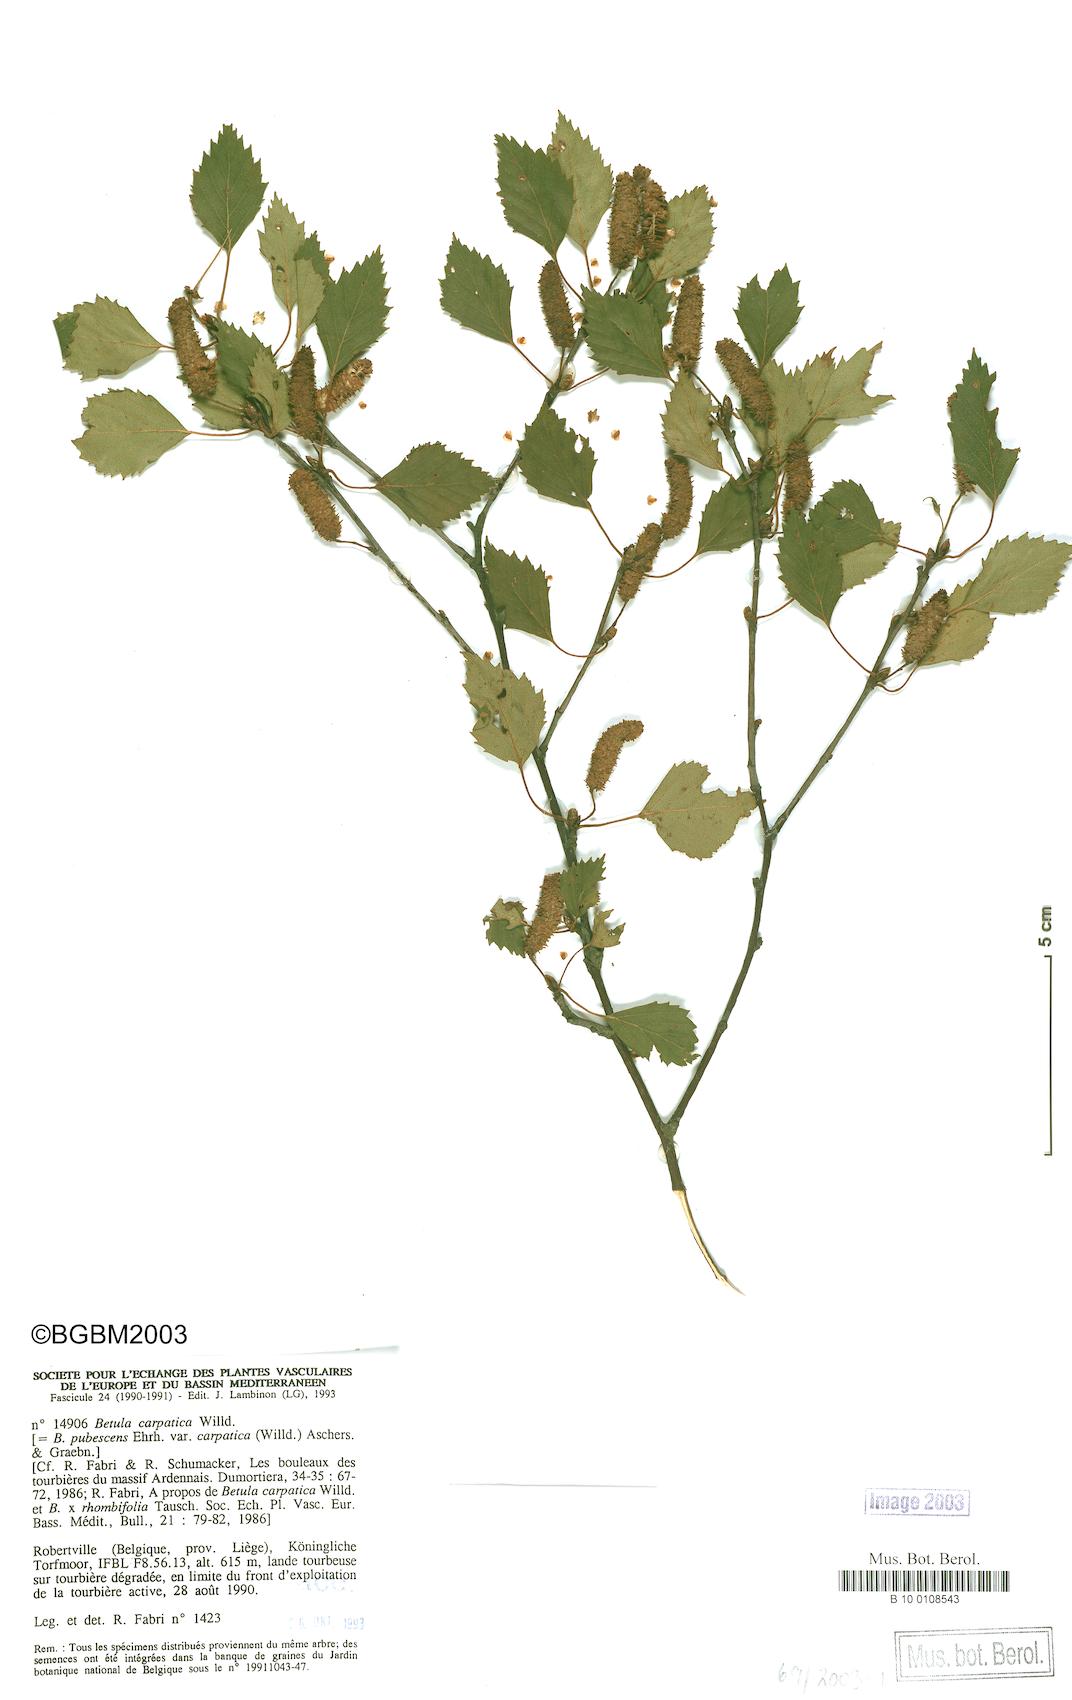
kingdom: Plantae
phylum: Tracheophyta
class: Magnoliopsida
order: Fagales
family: Betulaceae
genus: Betula
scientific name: Betula pubescens
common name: Downy birch
